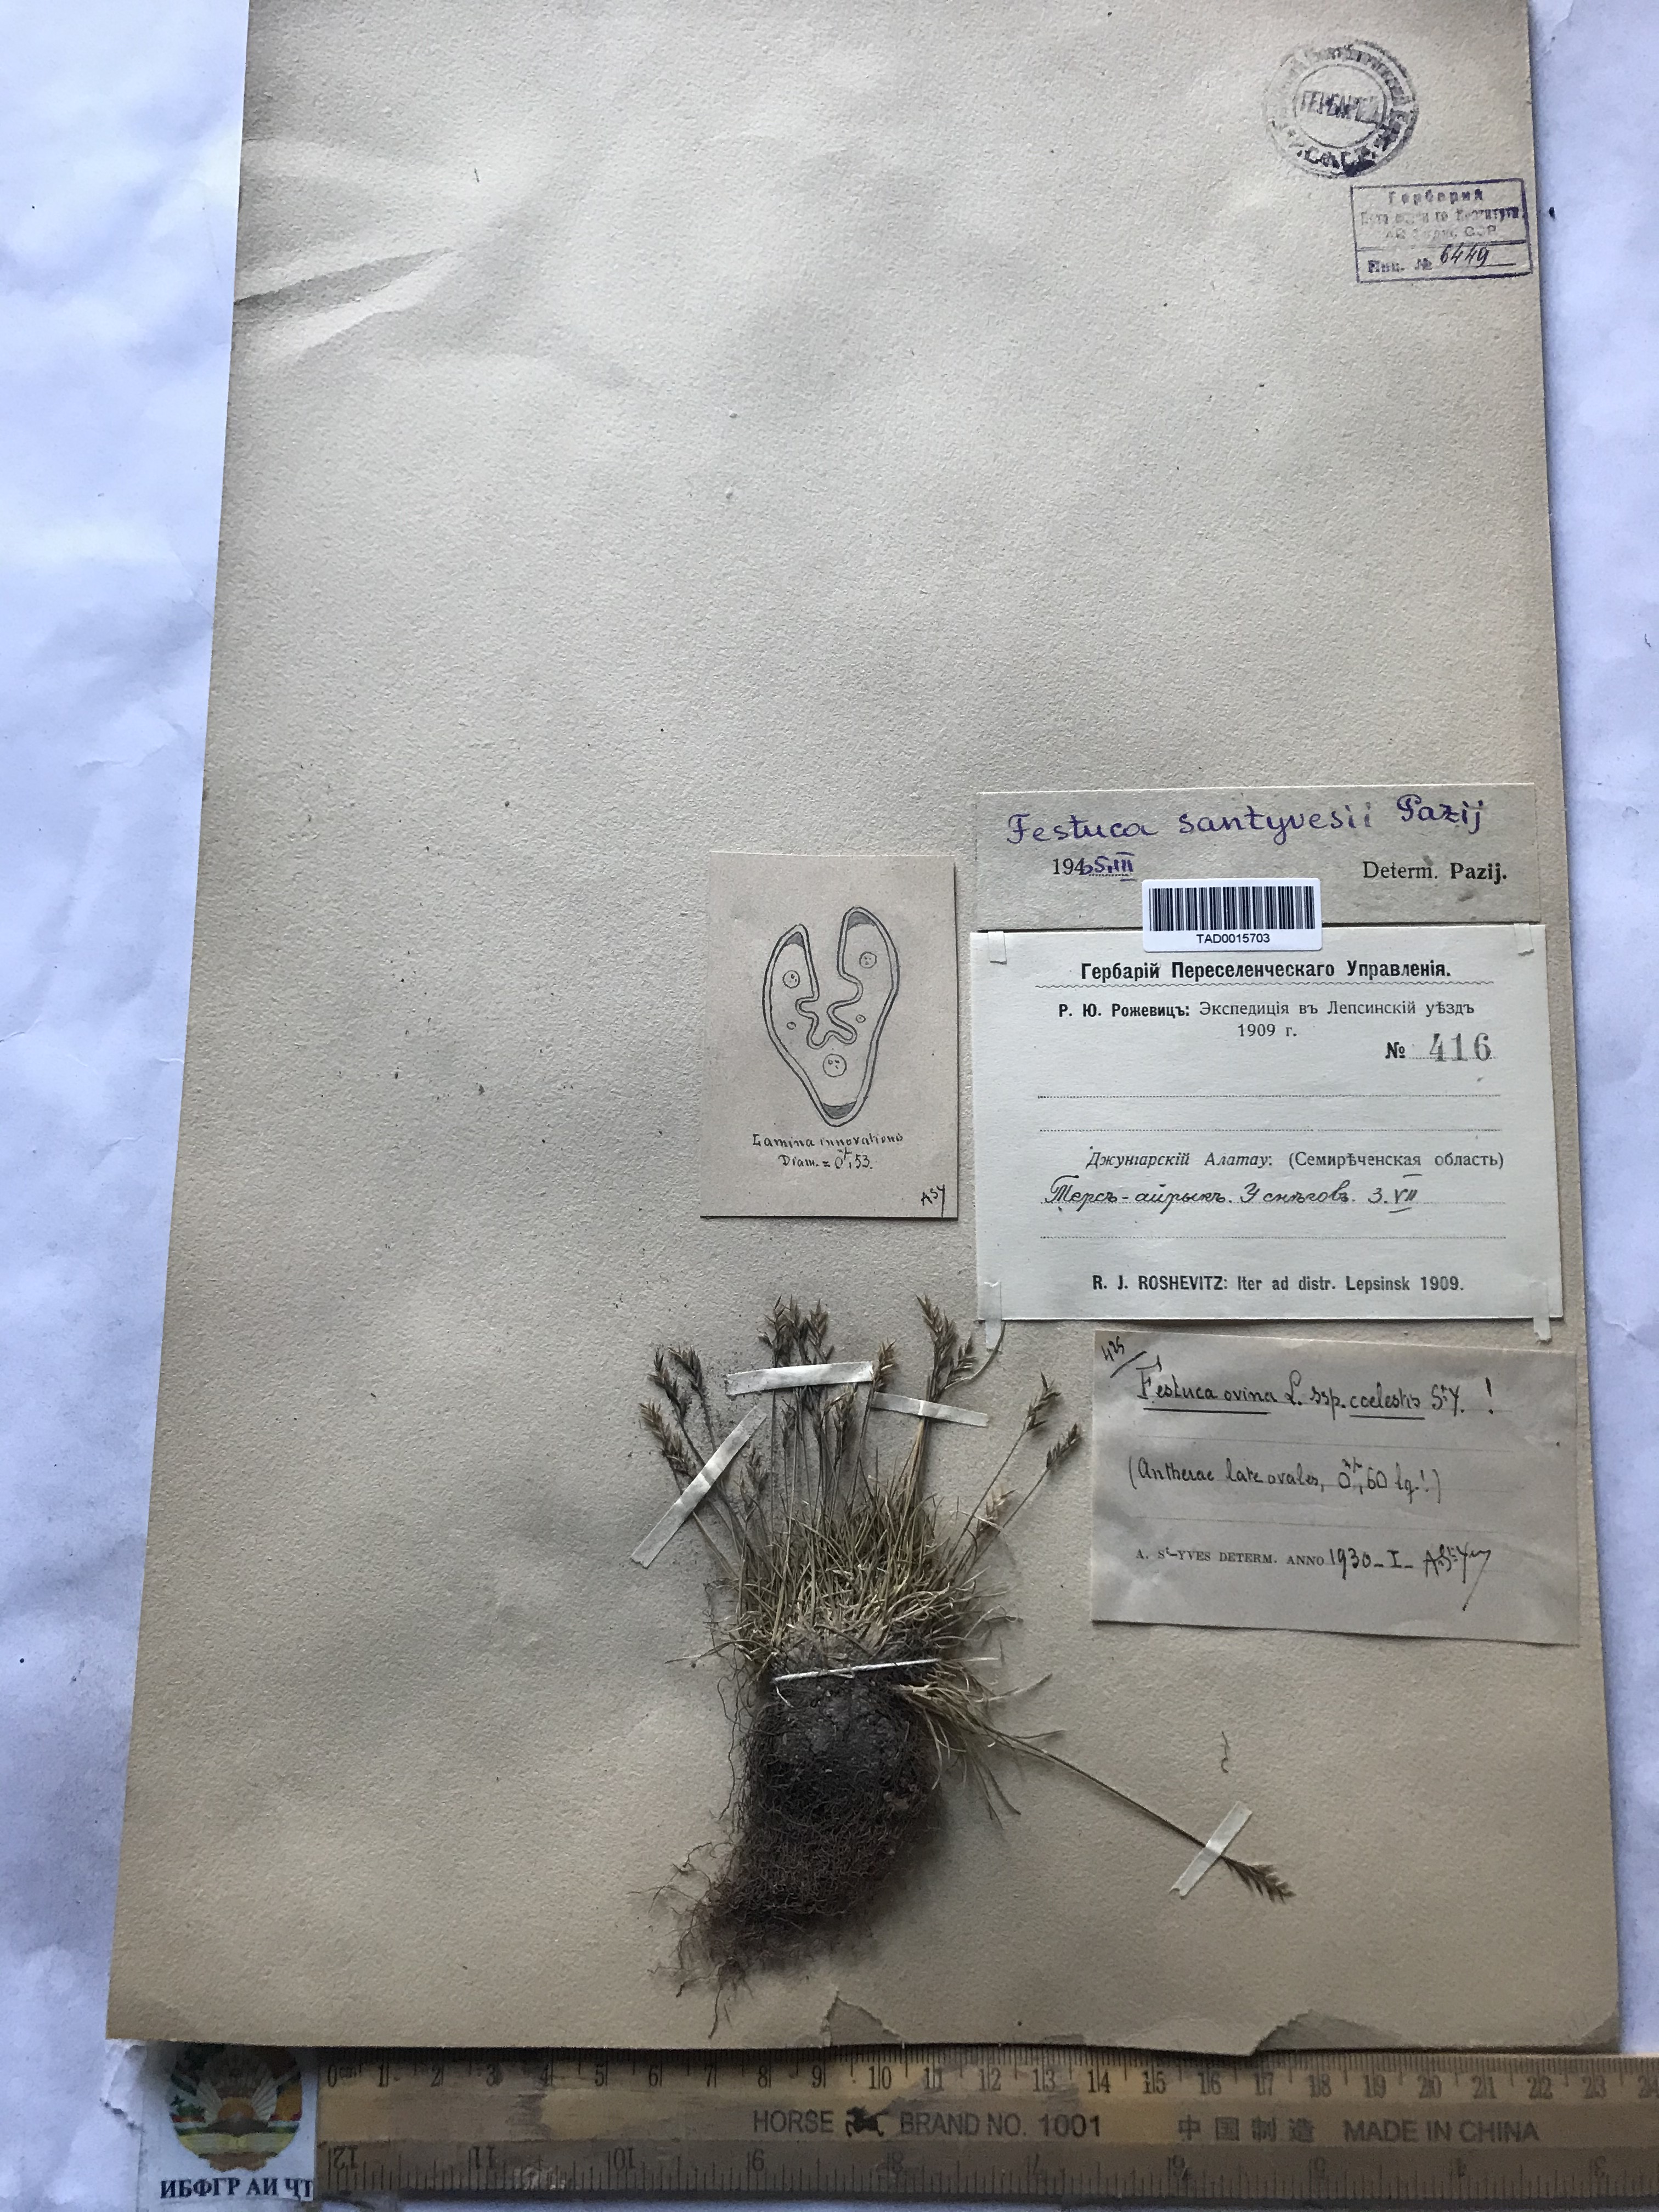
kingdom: Plantae
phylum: Tracheophyta
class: Liliopsida
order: Poales
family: Poaceae
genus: Festuca
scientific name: Festuca coelestis
